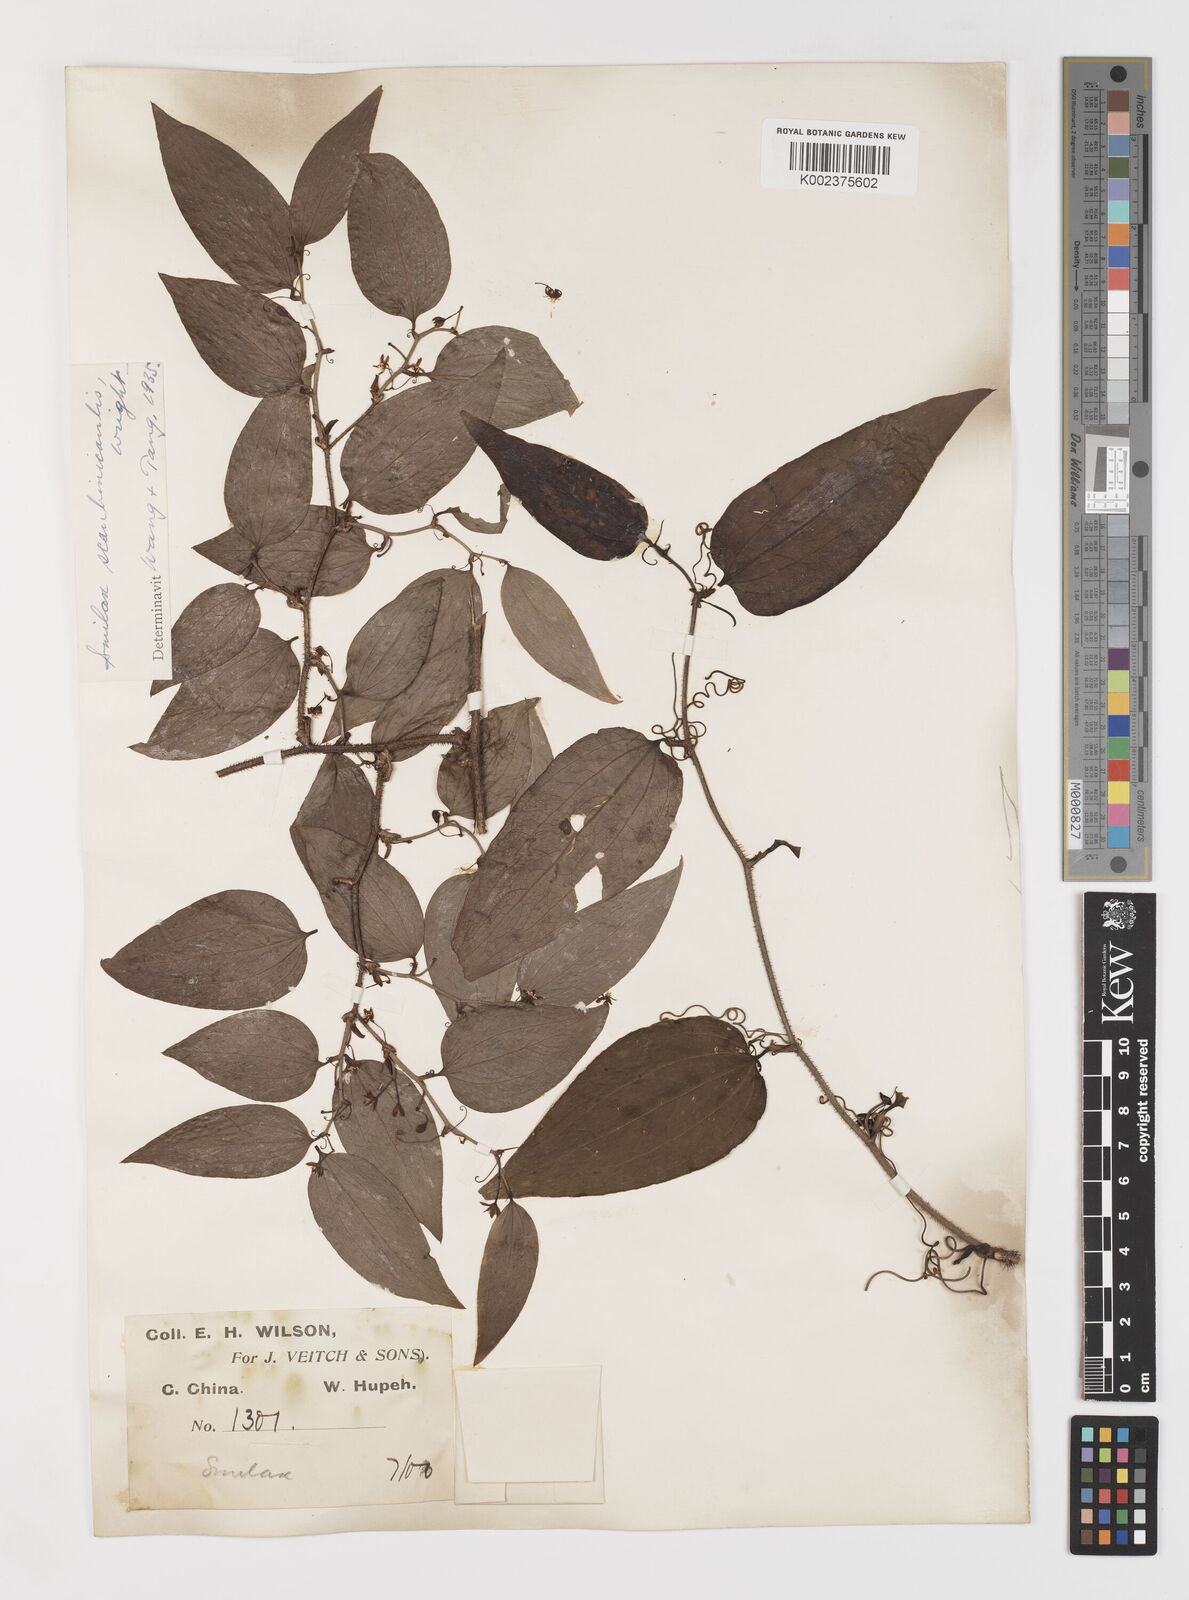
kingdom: Plantae
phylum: Tracheophyta
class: Liliopsida
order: Liliales
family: Smilacaceae
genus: Smilax
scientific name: Smilax scobinicaulis
